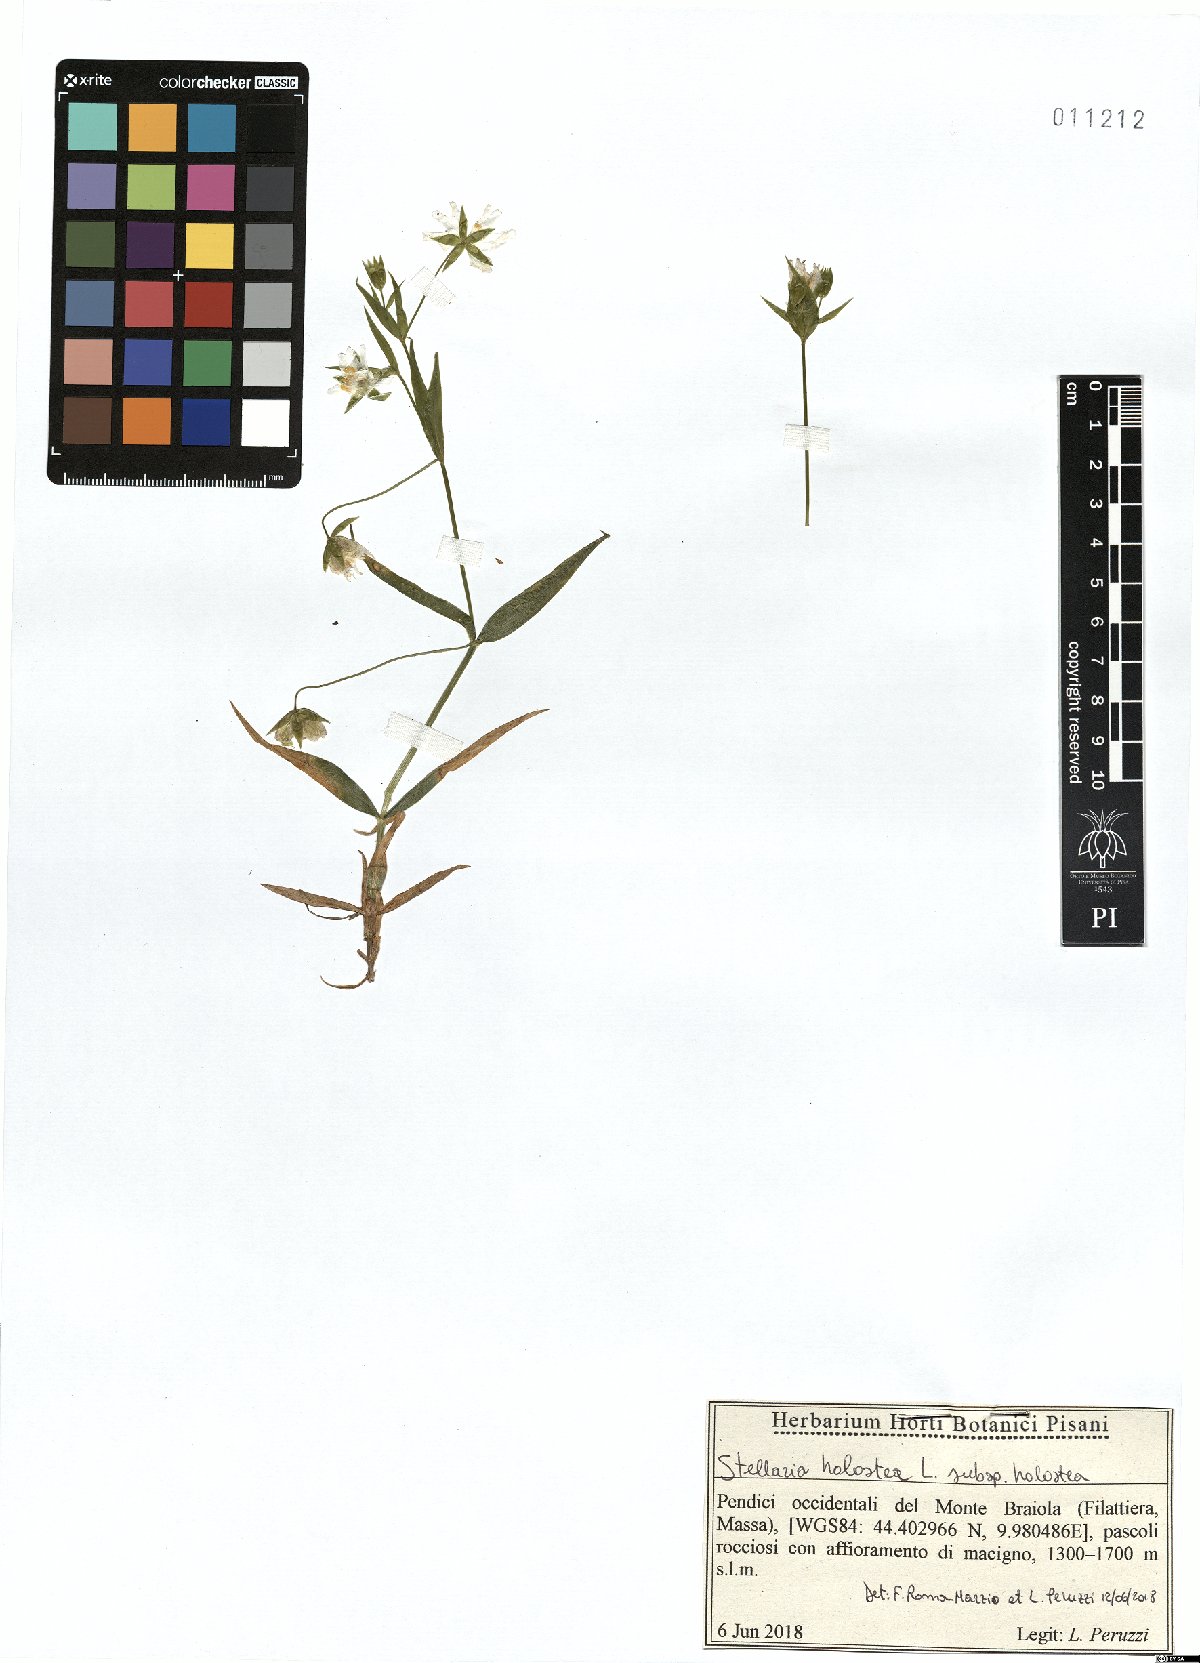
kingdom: Plantae
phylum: Tracheophyta
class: Magnoliopsida
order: Caryophyllales
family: Caryophyllaceae
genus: Rabelera
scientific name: Rabelera holostea
